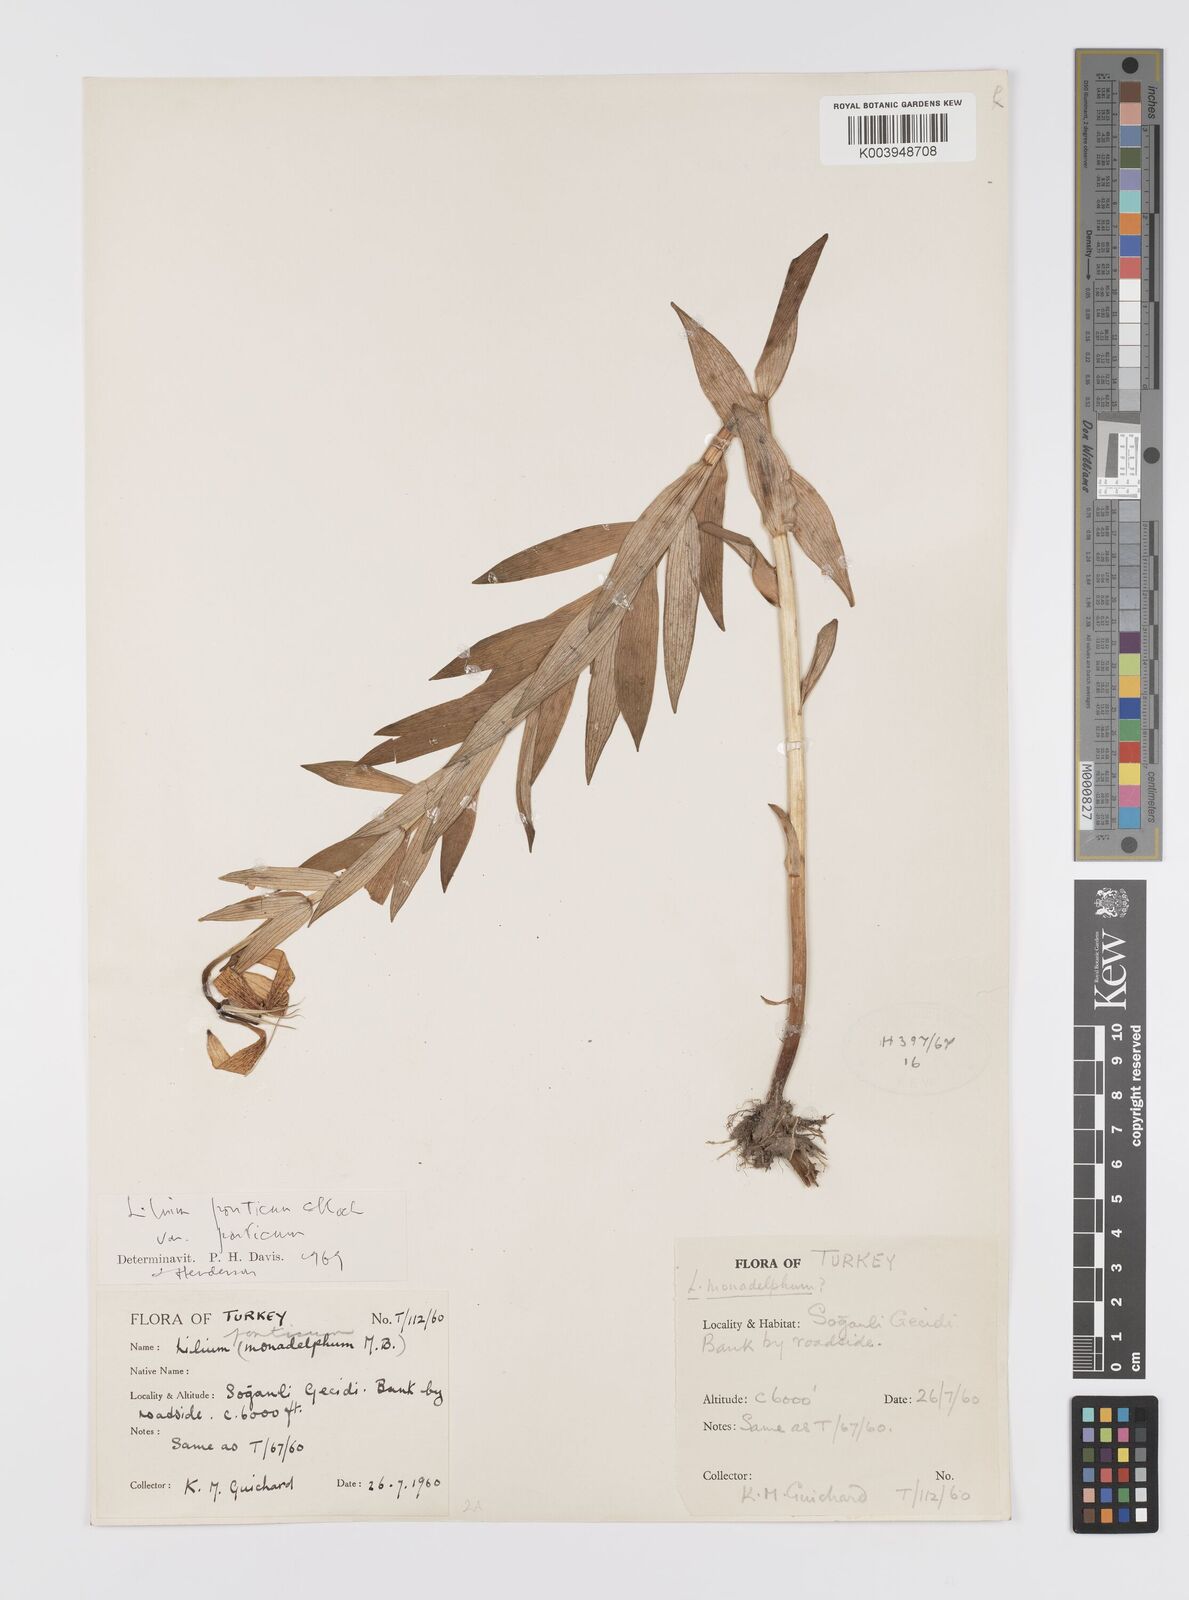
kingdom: Plantae
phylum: Tracheophyta
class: Liliopsida
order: Liliales
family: Liliaceae
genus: Lilium
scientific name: Lilium ponticum
